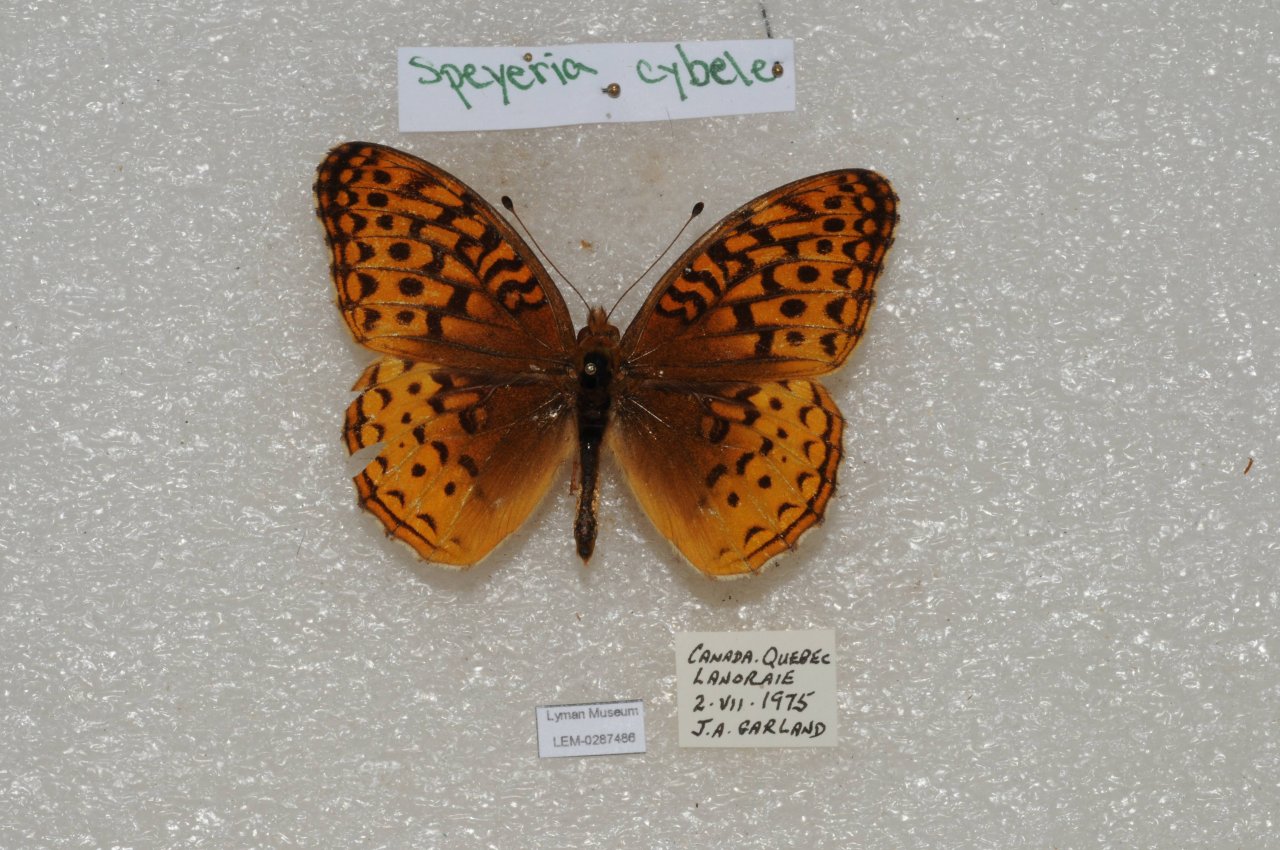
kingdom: Animalia
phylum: Arthropoda
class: Insecta
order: Lepidoptera
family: Nymphalidae
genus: Speyeria
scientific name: Speyeria cybele
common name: Great Spangled Fritillary
